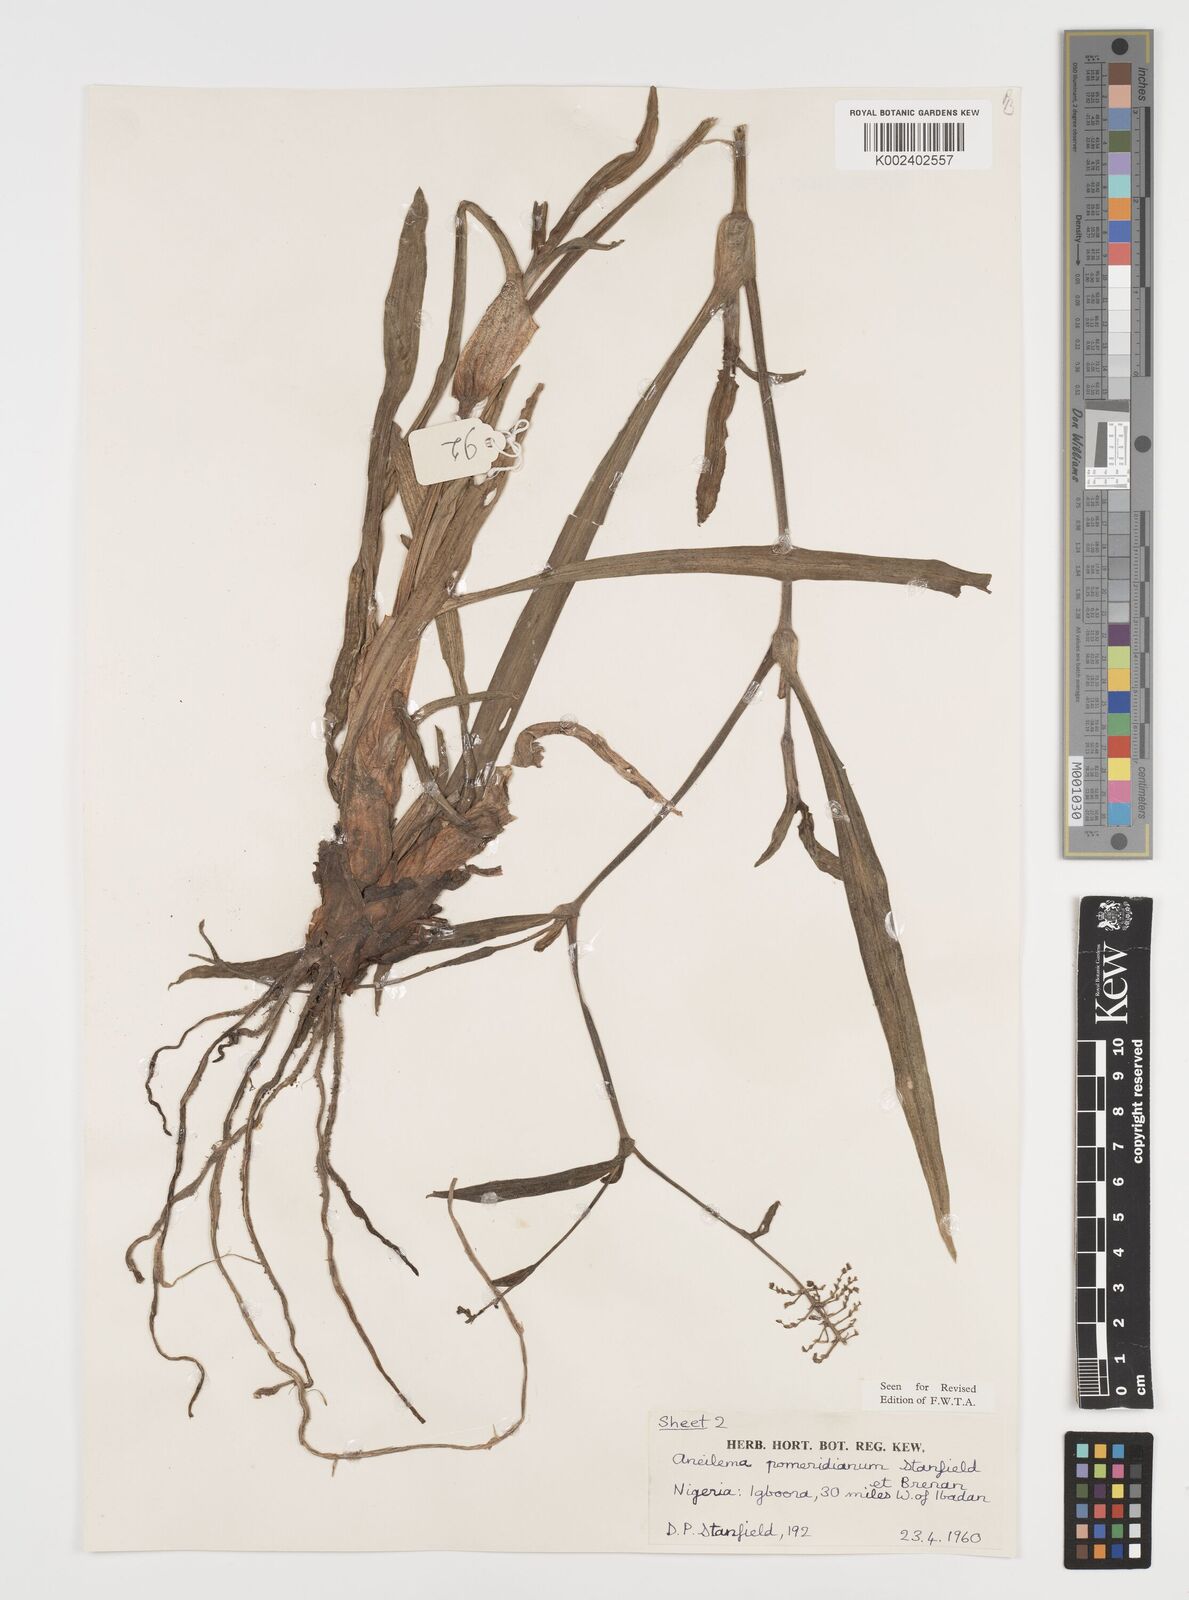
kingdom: Plantae
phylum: Tracheophyta
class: Liliopsida
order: Commelinales
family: Commelinaceae
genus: Aneilema
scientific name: Aneilema pomeridianum
